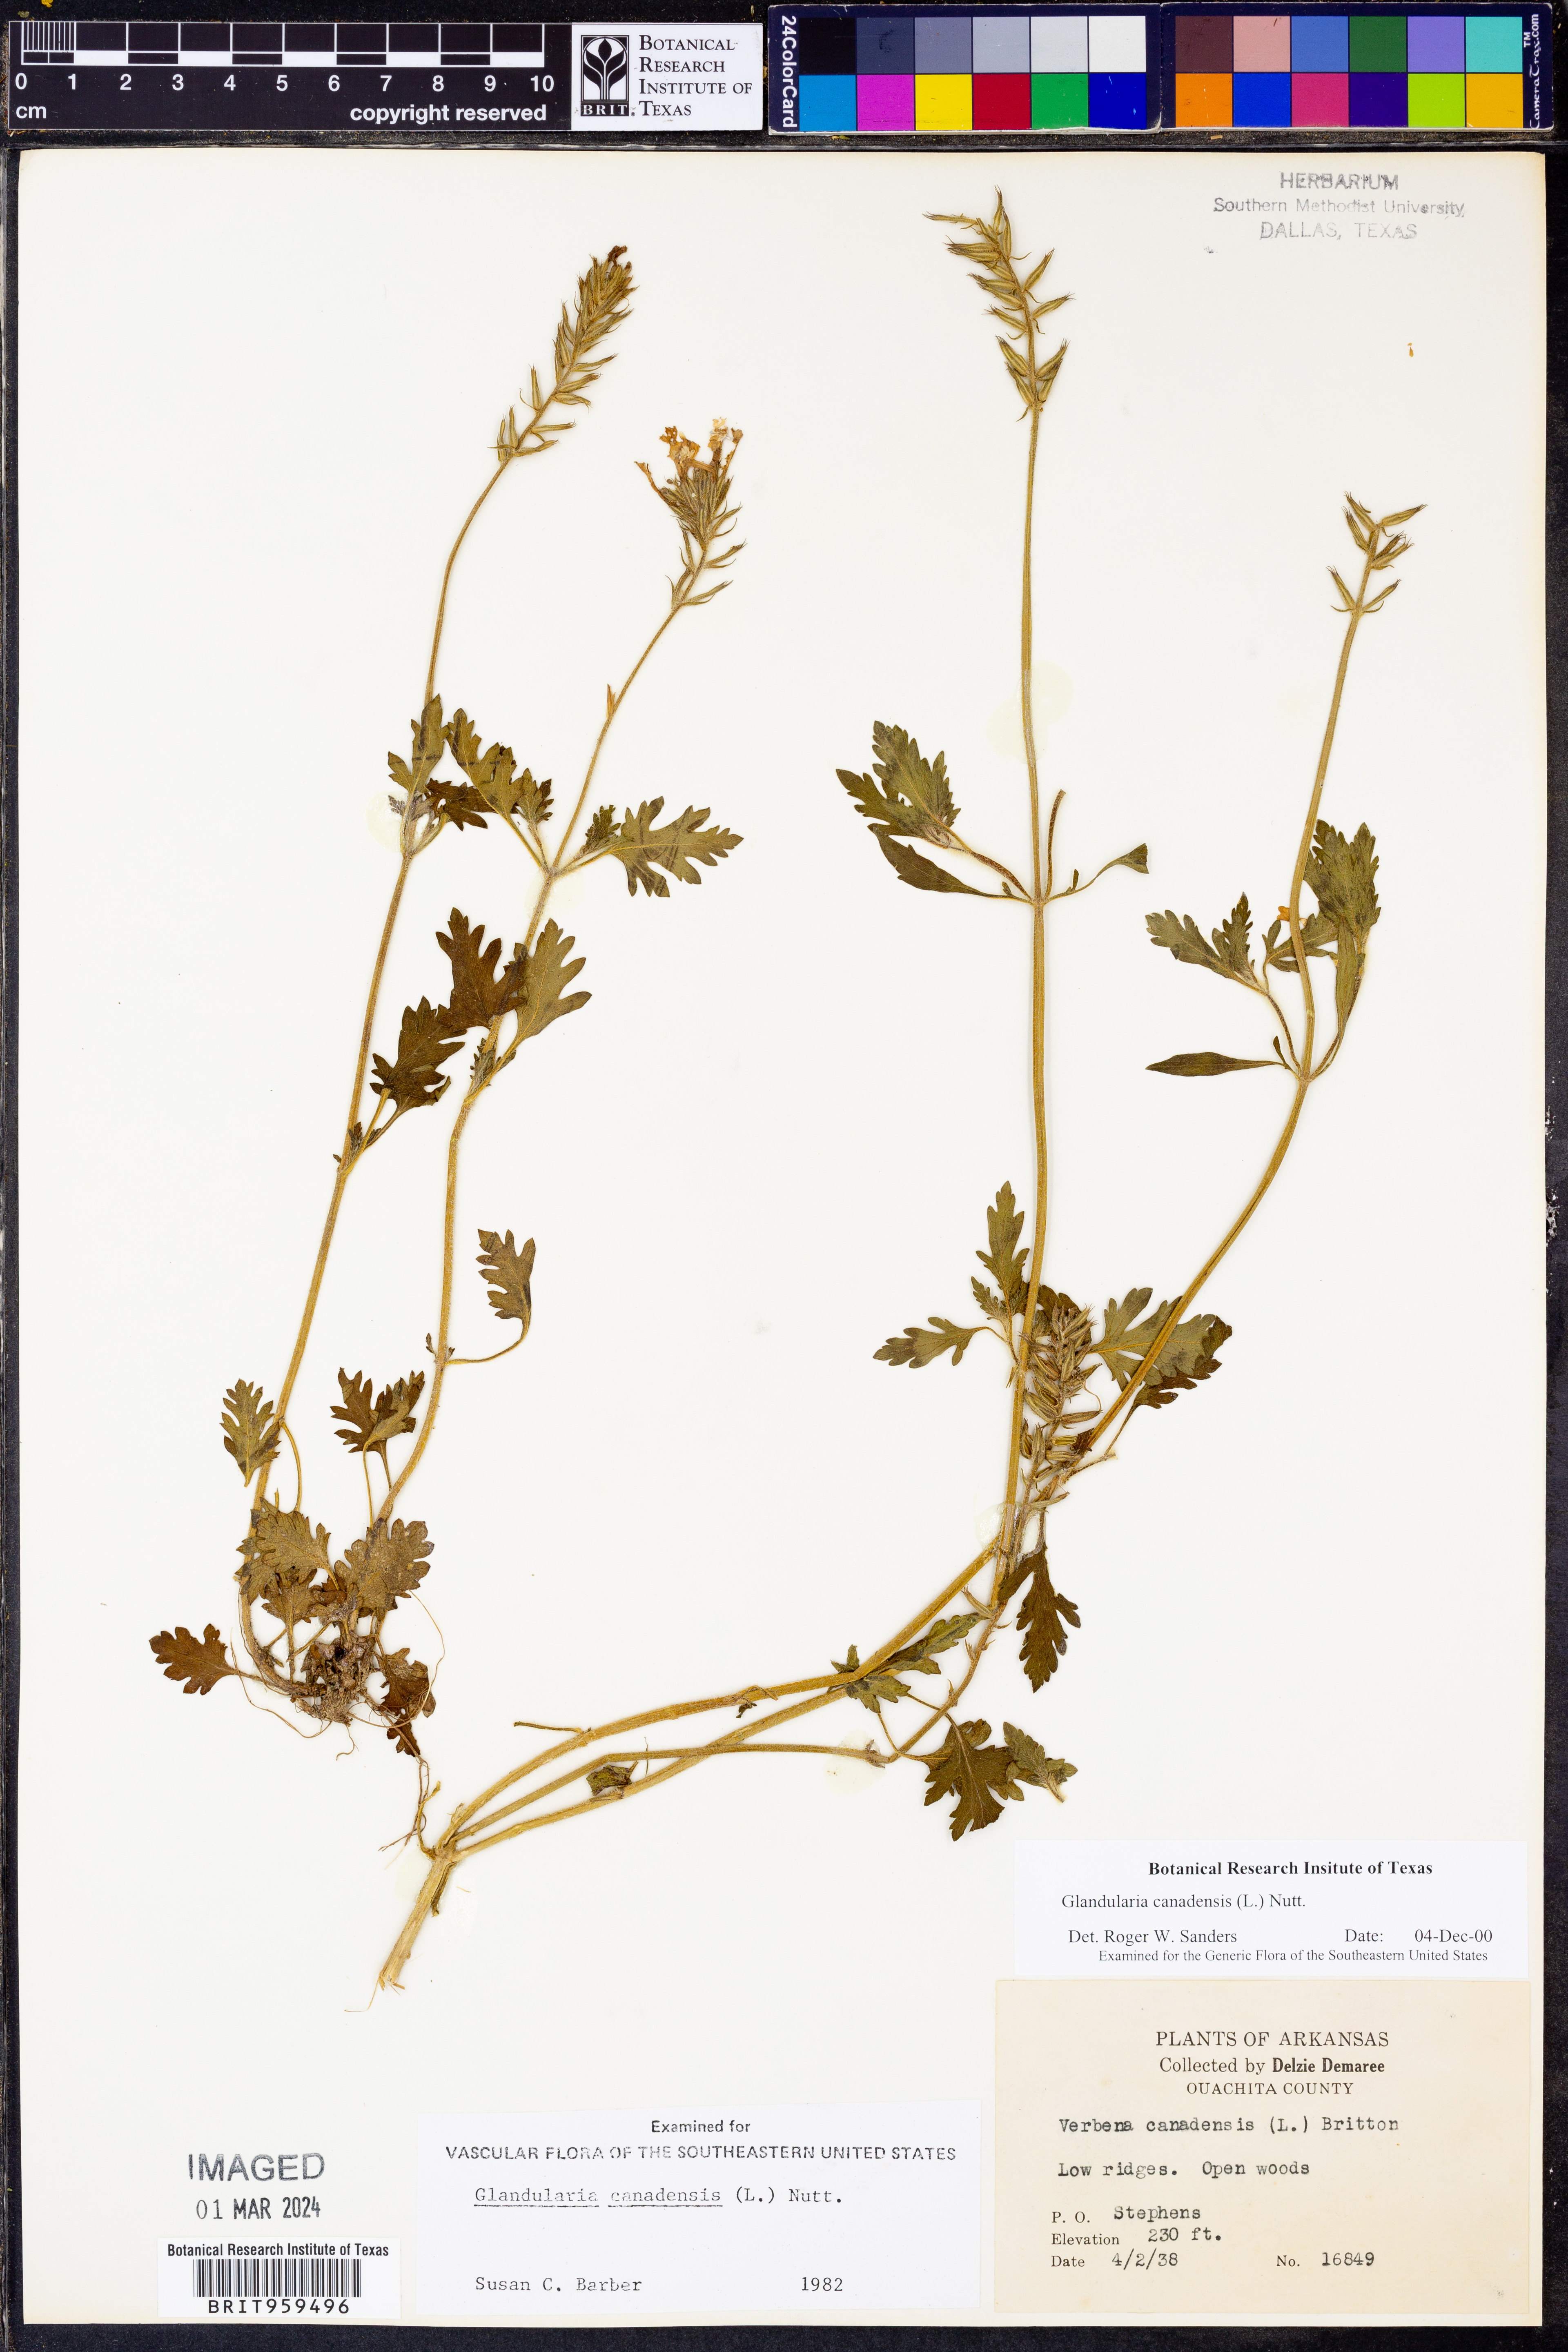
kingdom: Plantae
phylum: Tracheophyta
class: Magnoliopsida
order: Lamiales
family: Verbenaceae
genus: Verbena
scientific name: Verbena canadensis
